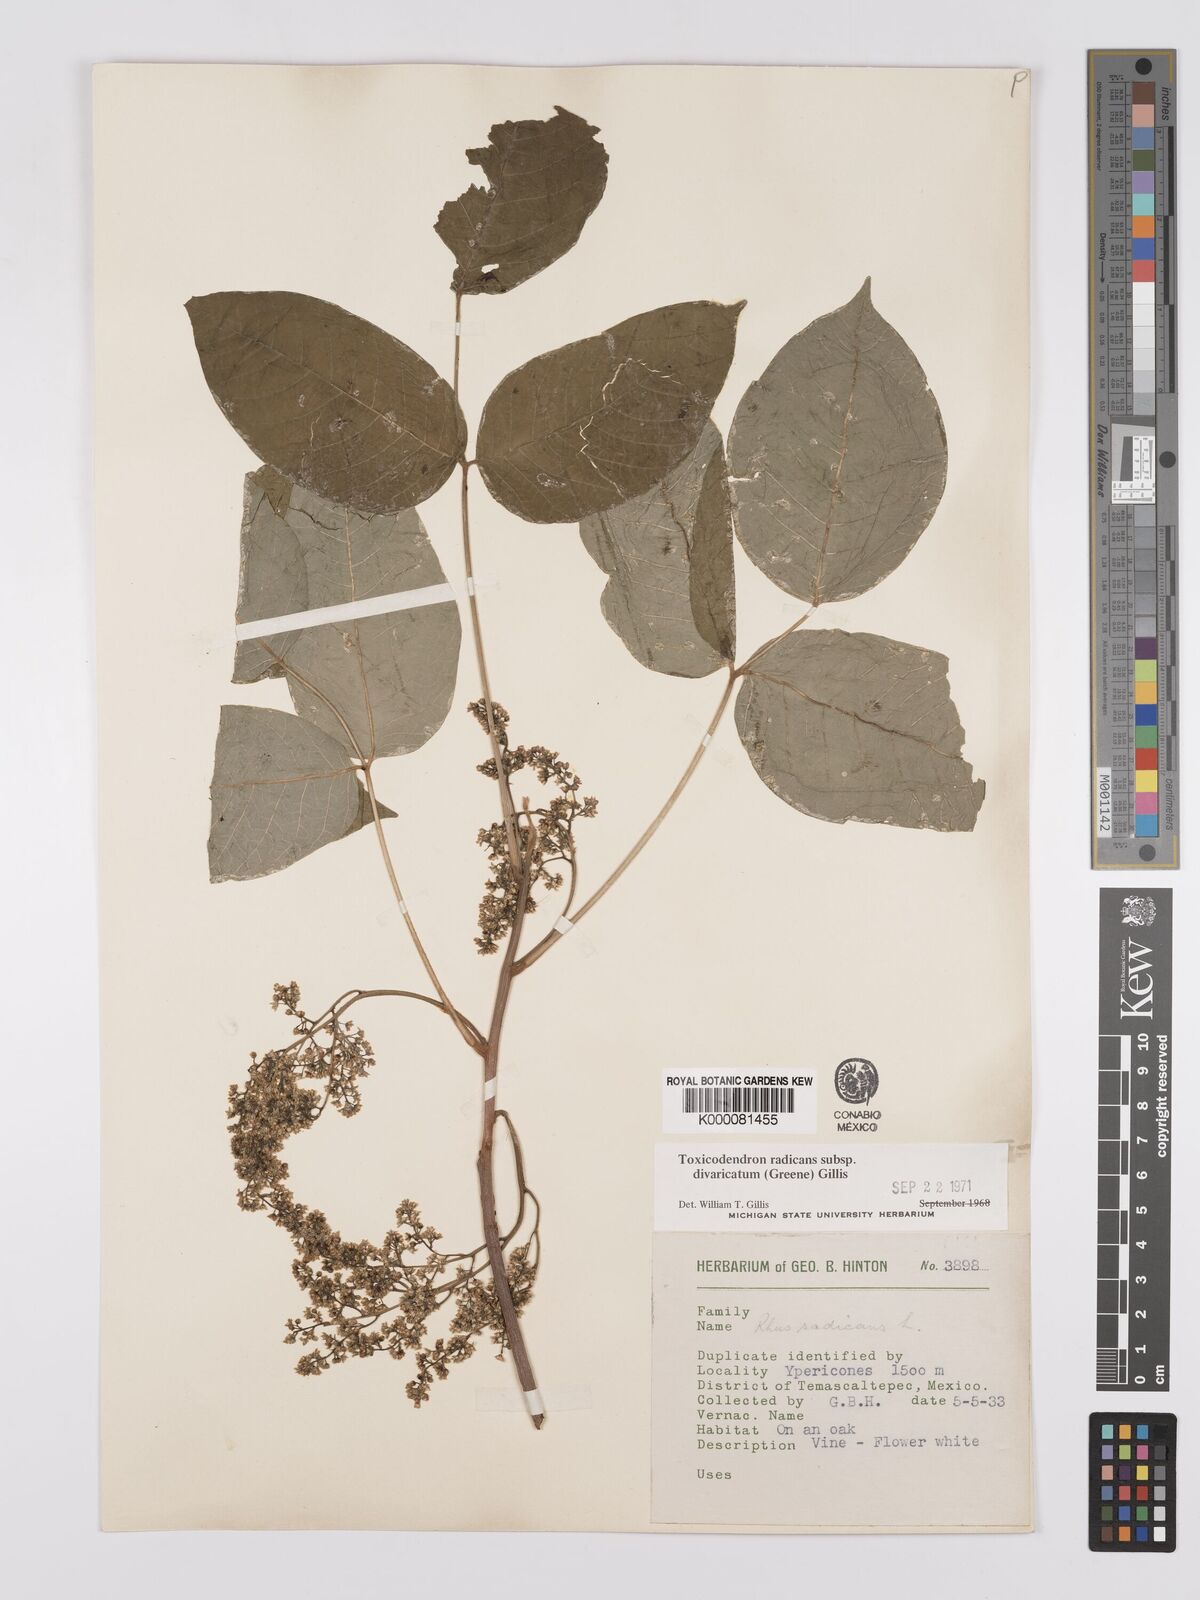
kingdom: Plantae
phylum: Tracheophyta
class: Magnoliopsida
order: Sapindales
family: Anacardiaceae
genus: Toxicodendron
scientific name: Toxicodendron radicans
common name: Poison ivy
